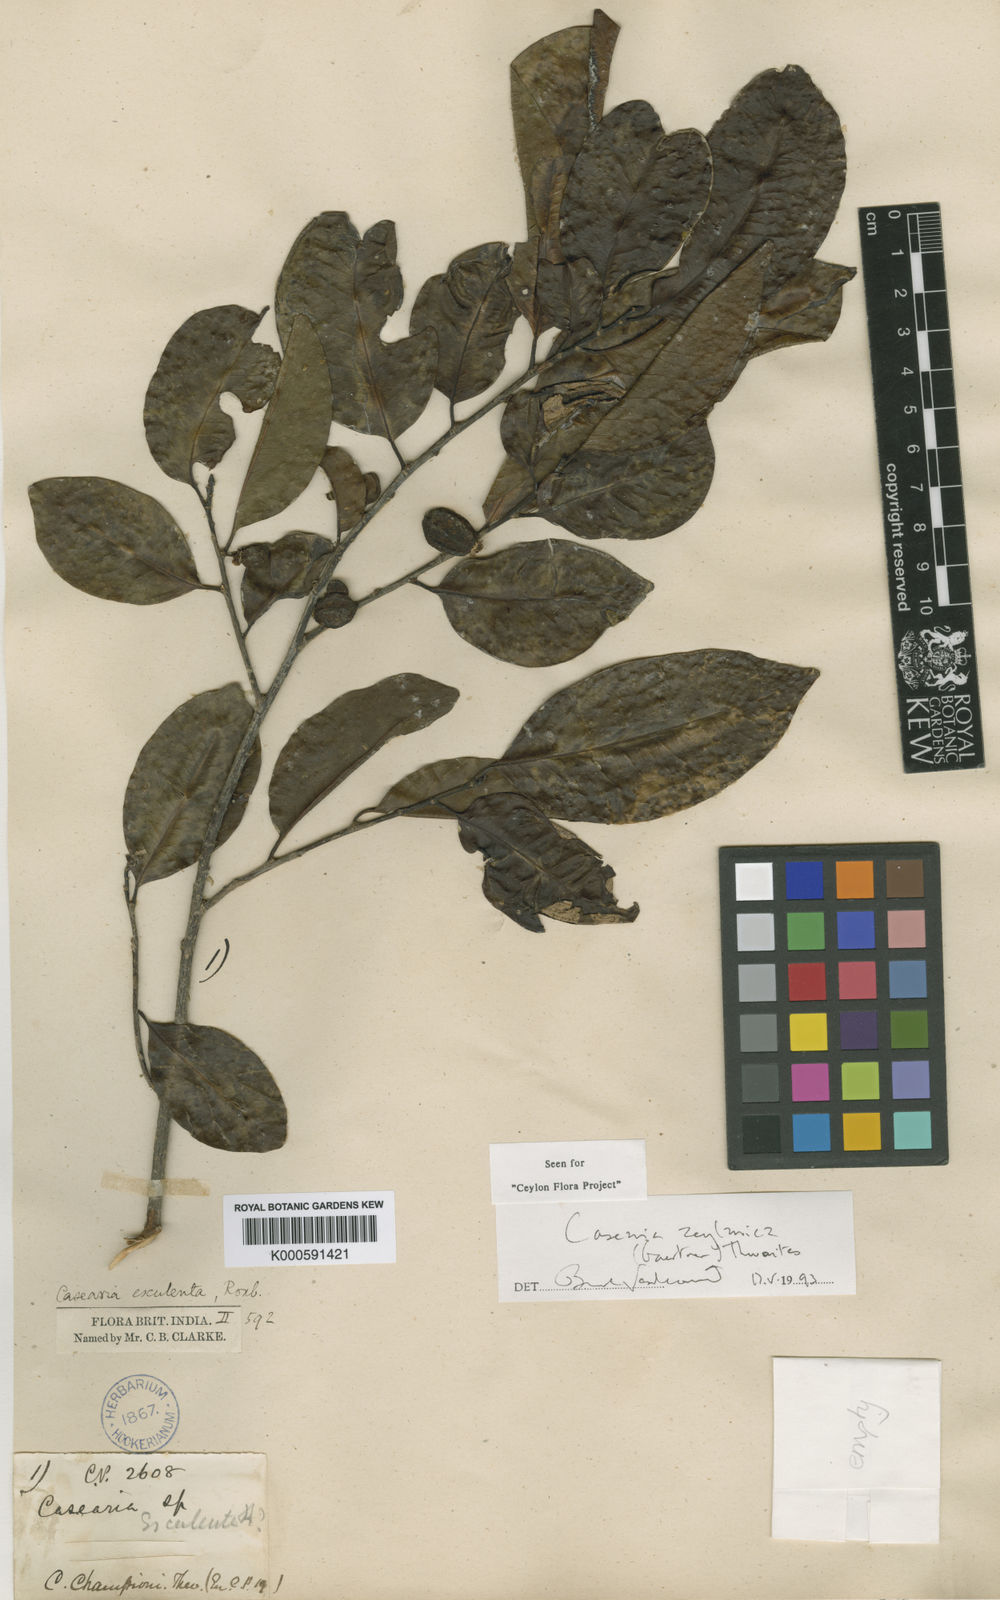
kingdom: Plantae
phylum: Tracheophyta
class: Magnoliopsida
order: Malpighiales
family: Salicaceae
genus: Casearia
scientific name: Casearia zeylanica
